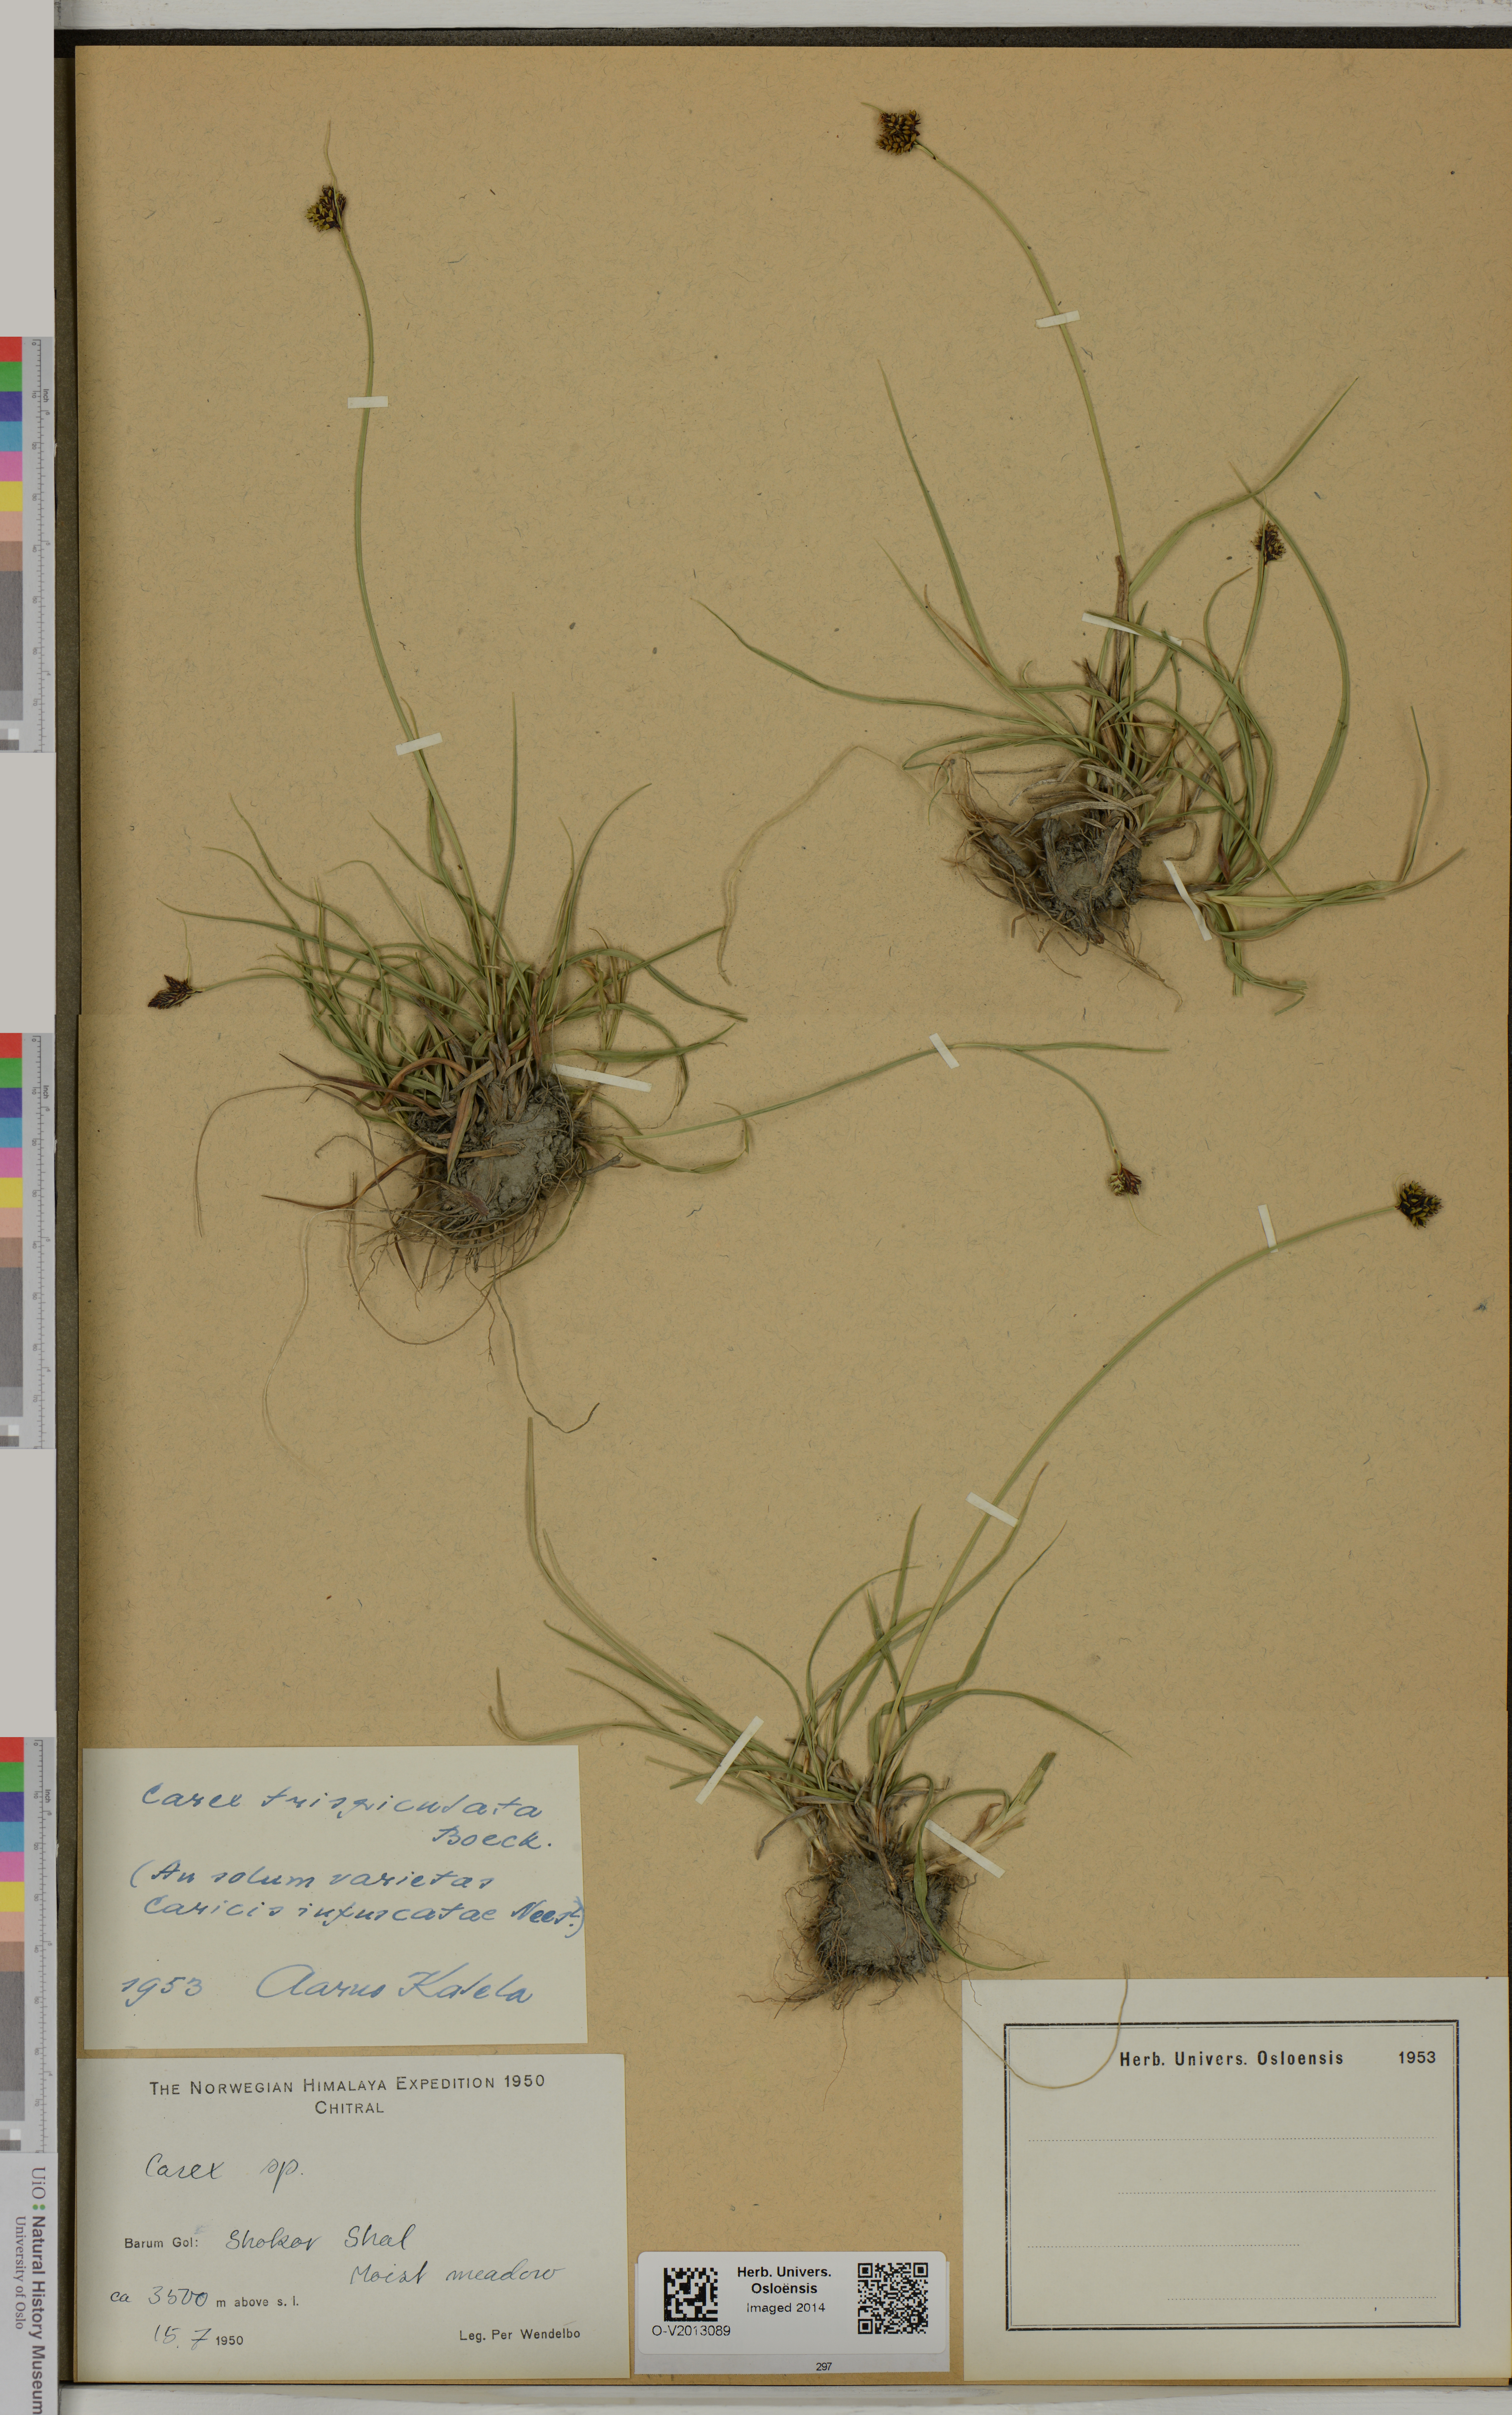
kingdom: Plantae
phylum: Tracheophyta
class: Liliopsida
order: Poales
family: Cyperaceae
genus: Carex
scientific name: Carex norvegica
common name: Close-headed alpine-sedge
